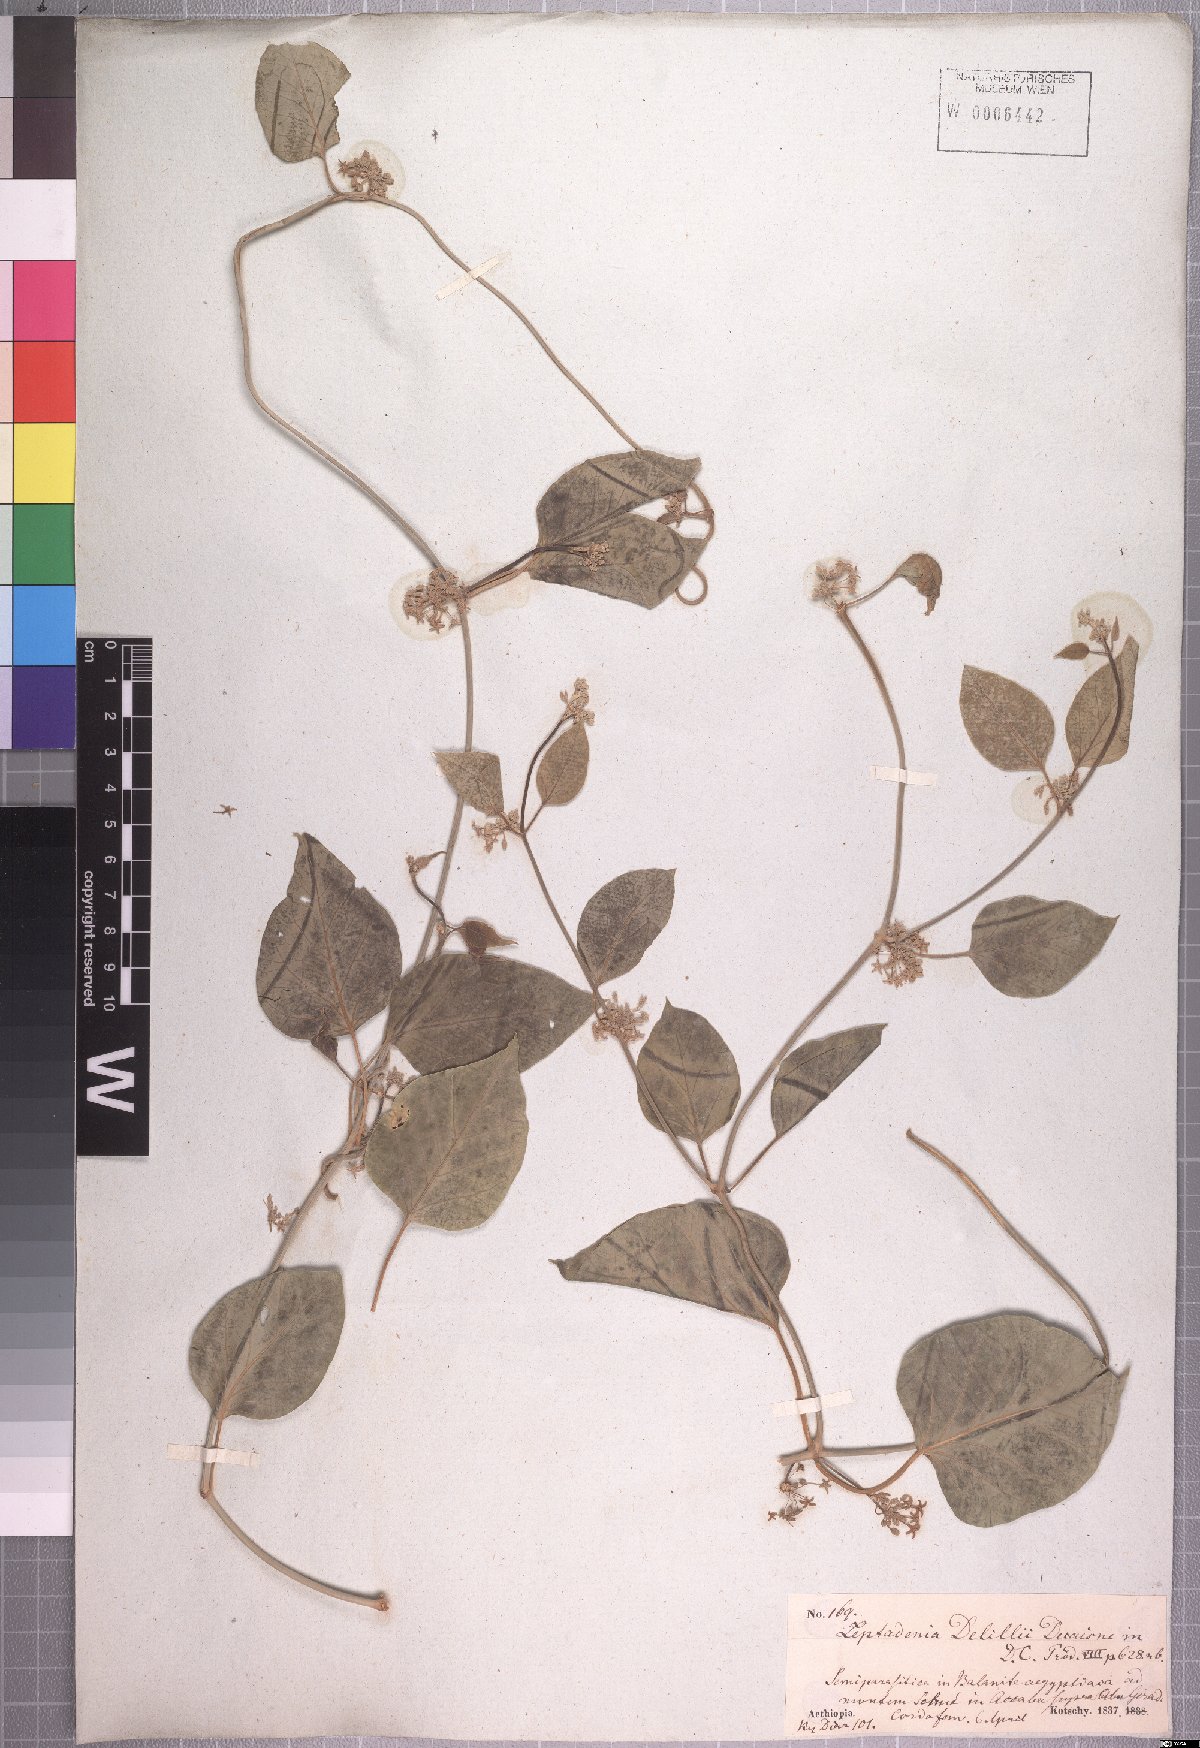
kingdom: Plantae
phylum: Tracheophyta
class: Magnoliopsida
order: Gentianales
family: Apocynaceae
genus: Leptadenia
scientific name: Leptadenia arborea
